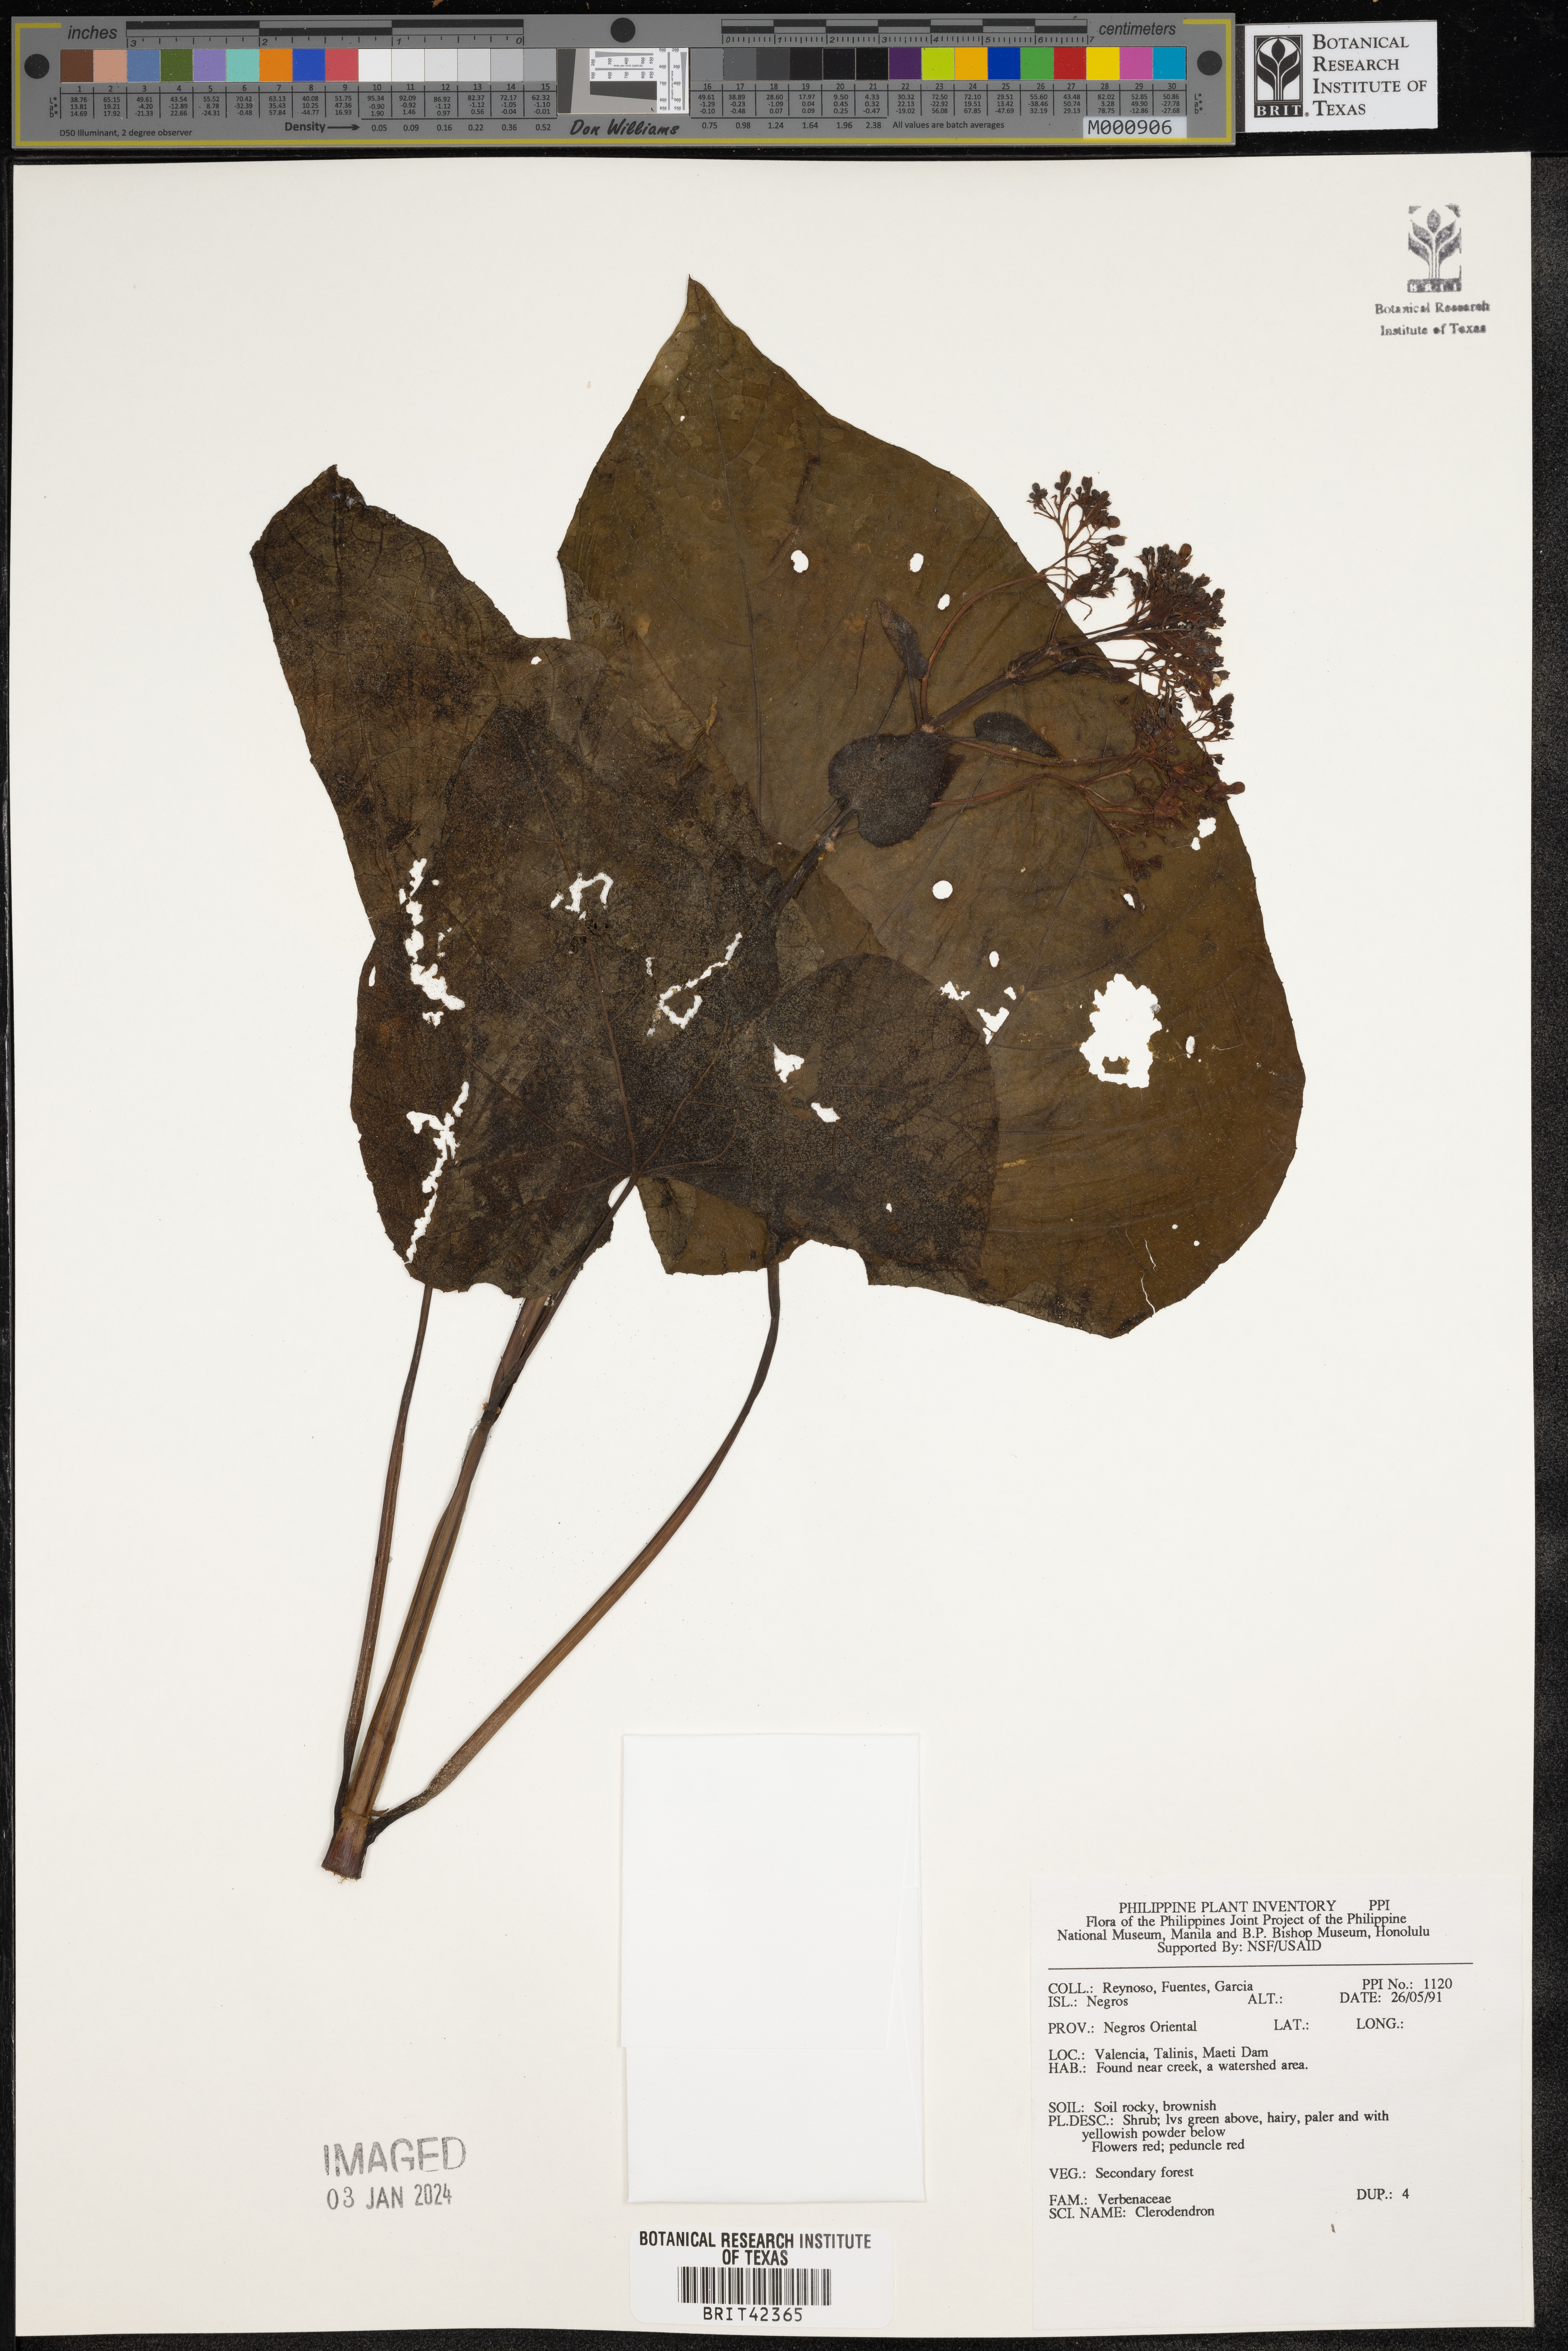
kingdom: Plantae
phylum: Tracheophyta
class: Magnoliopsida
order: Lamiales
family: Lamiaceae
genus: Clerodendrum
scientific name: Clerodendrum
